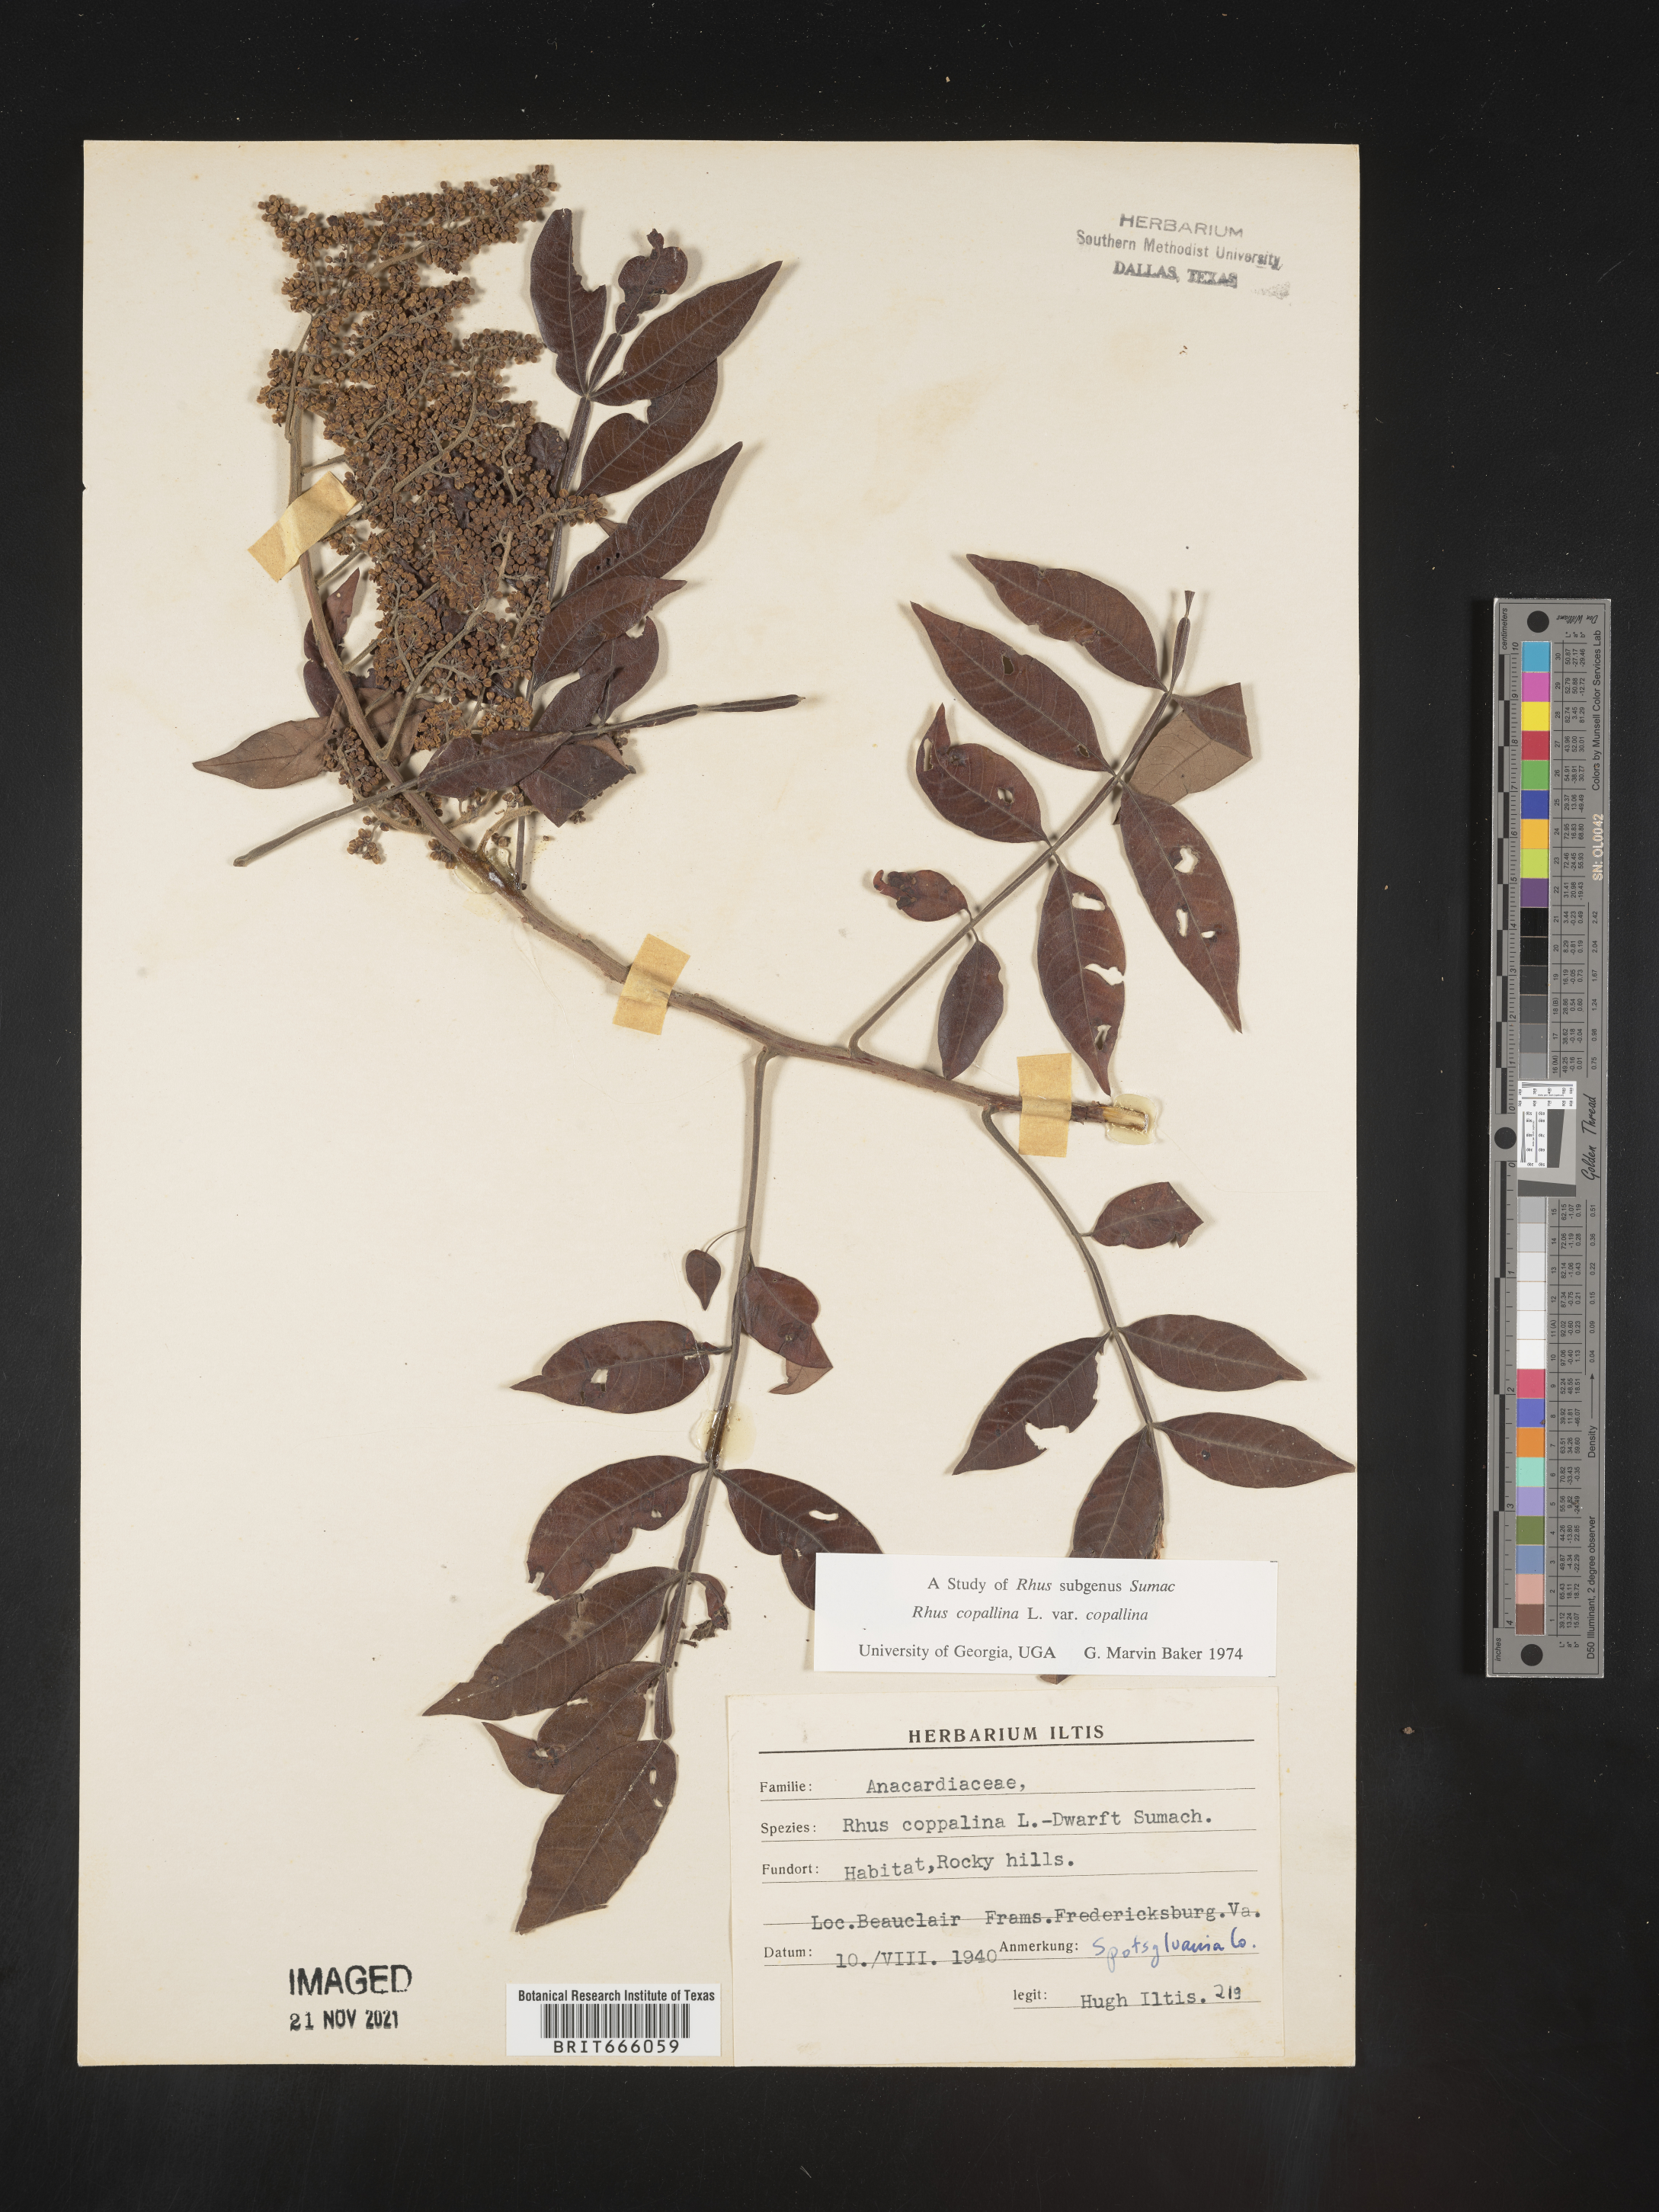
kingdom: Plantae
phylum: Tracheophyta
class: Magnoliopsida
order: Sapindales
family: Anacardiaceae
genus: Rhus
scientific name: Rhus copallina
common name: Shining sumac
